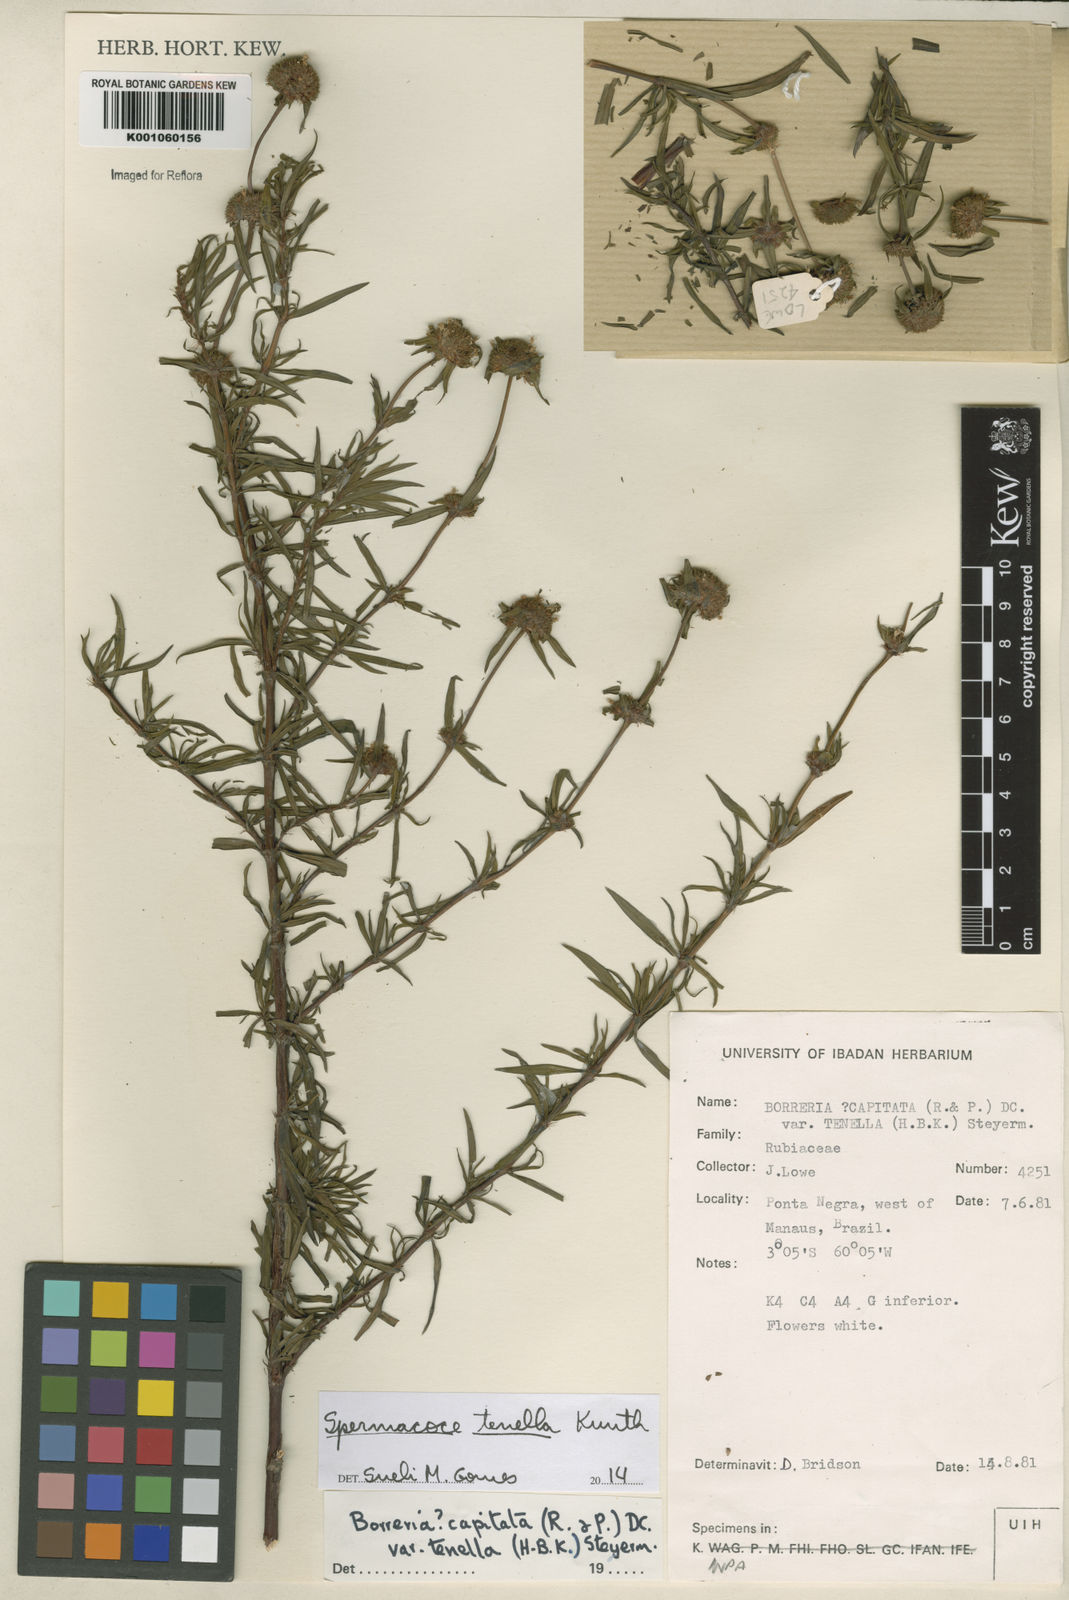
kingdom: Plantae
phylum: Tracheophyta
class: Magnoliopsida
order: Gentianales
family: Rubiaceae
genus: Spermacoce
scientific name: Spermacoce orinocensis
